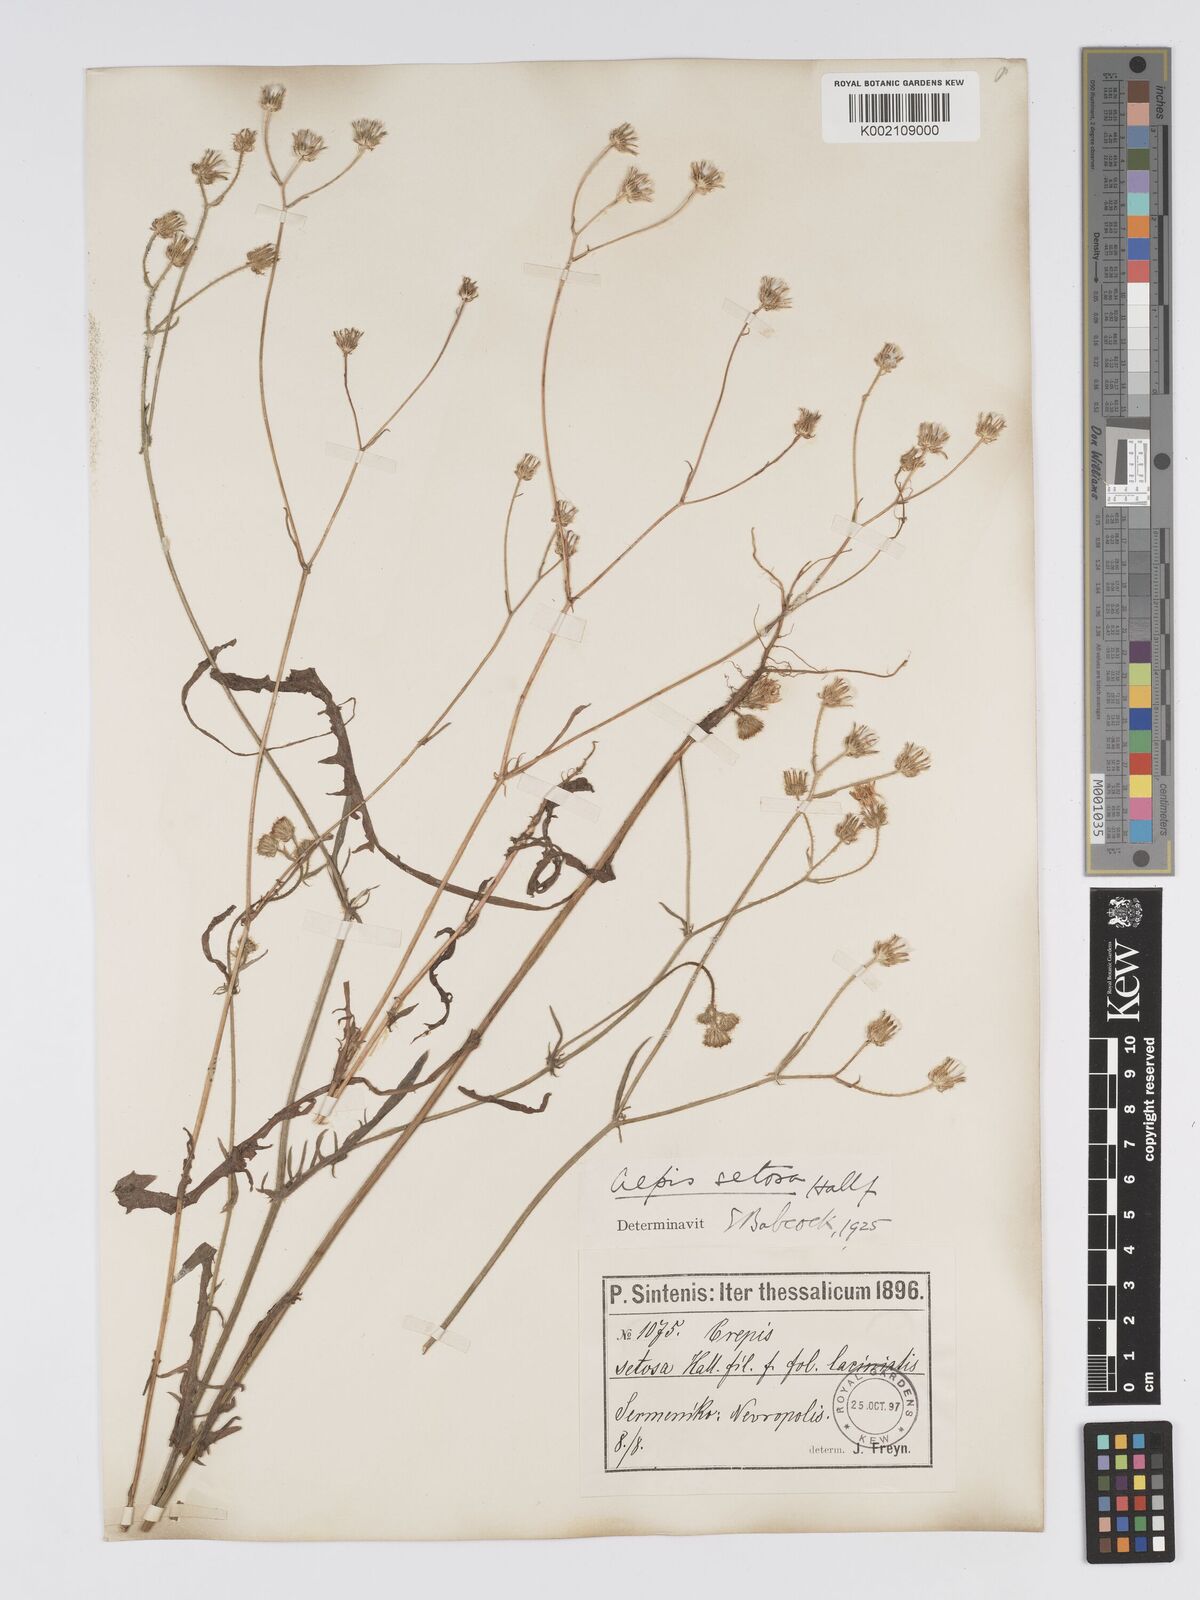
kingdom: Plantae
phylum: Tracheophyta
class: Magnoliopsida
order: Asterales
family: Asteraceae
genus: Crepis
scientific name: Crepis setosa
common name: Bristly hawk's-beard
